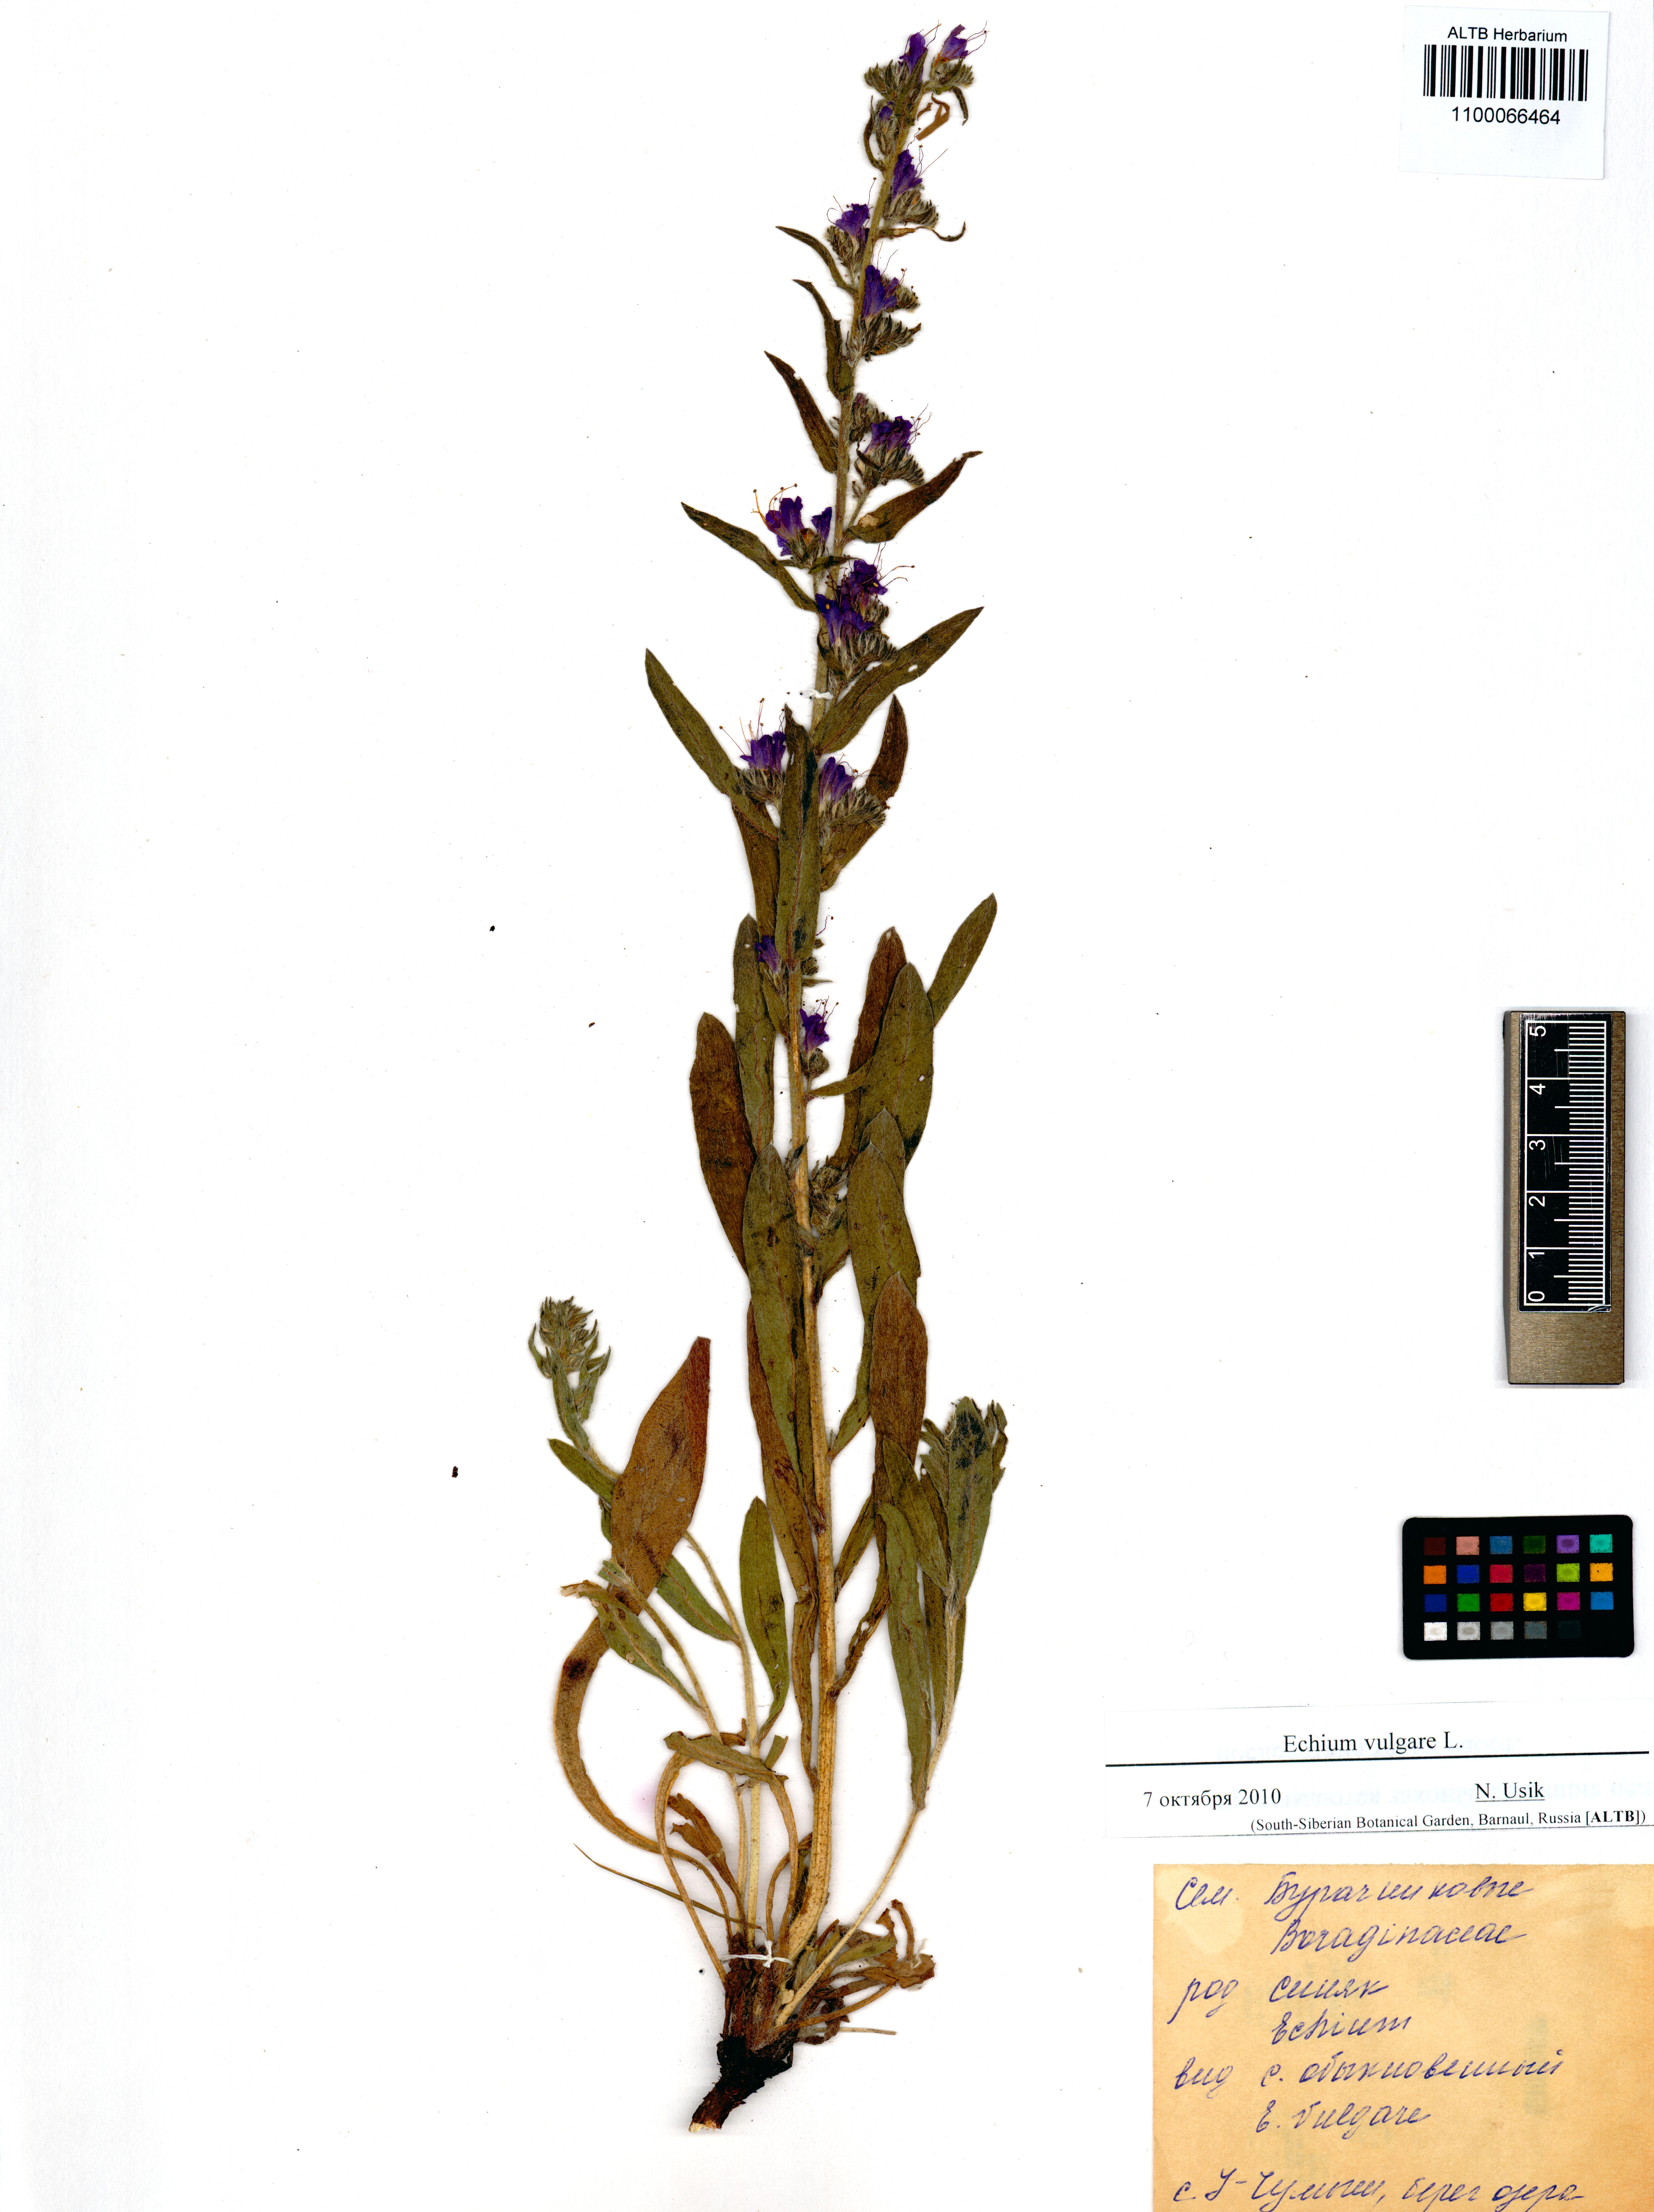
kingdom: Plantae
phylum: Tracheophyta
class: Magnoliopsida
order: Boraginales
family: Boraginaceae
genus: Echium
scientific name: Echium vulgare
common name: Common viper's bugloss
